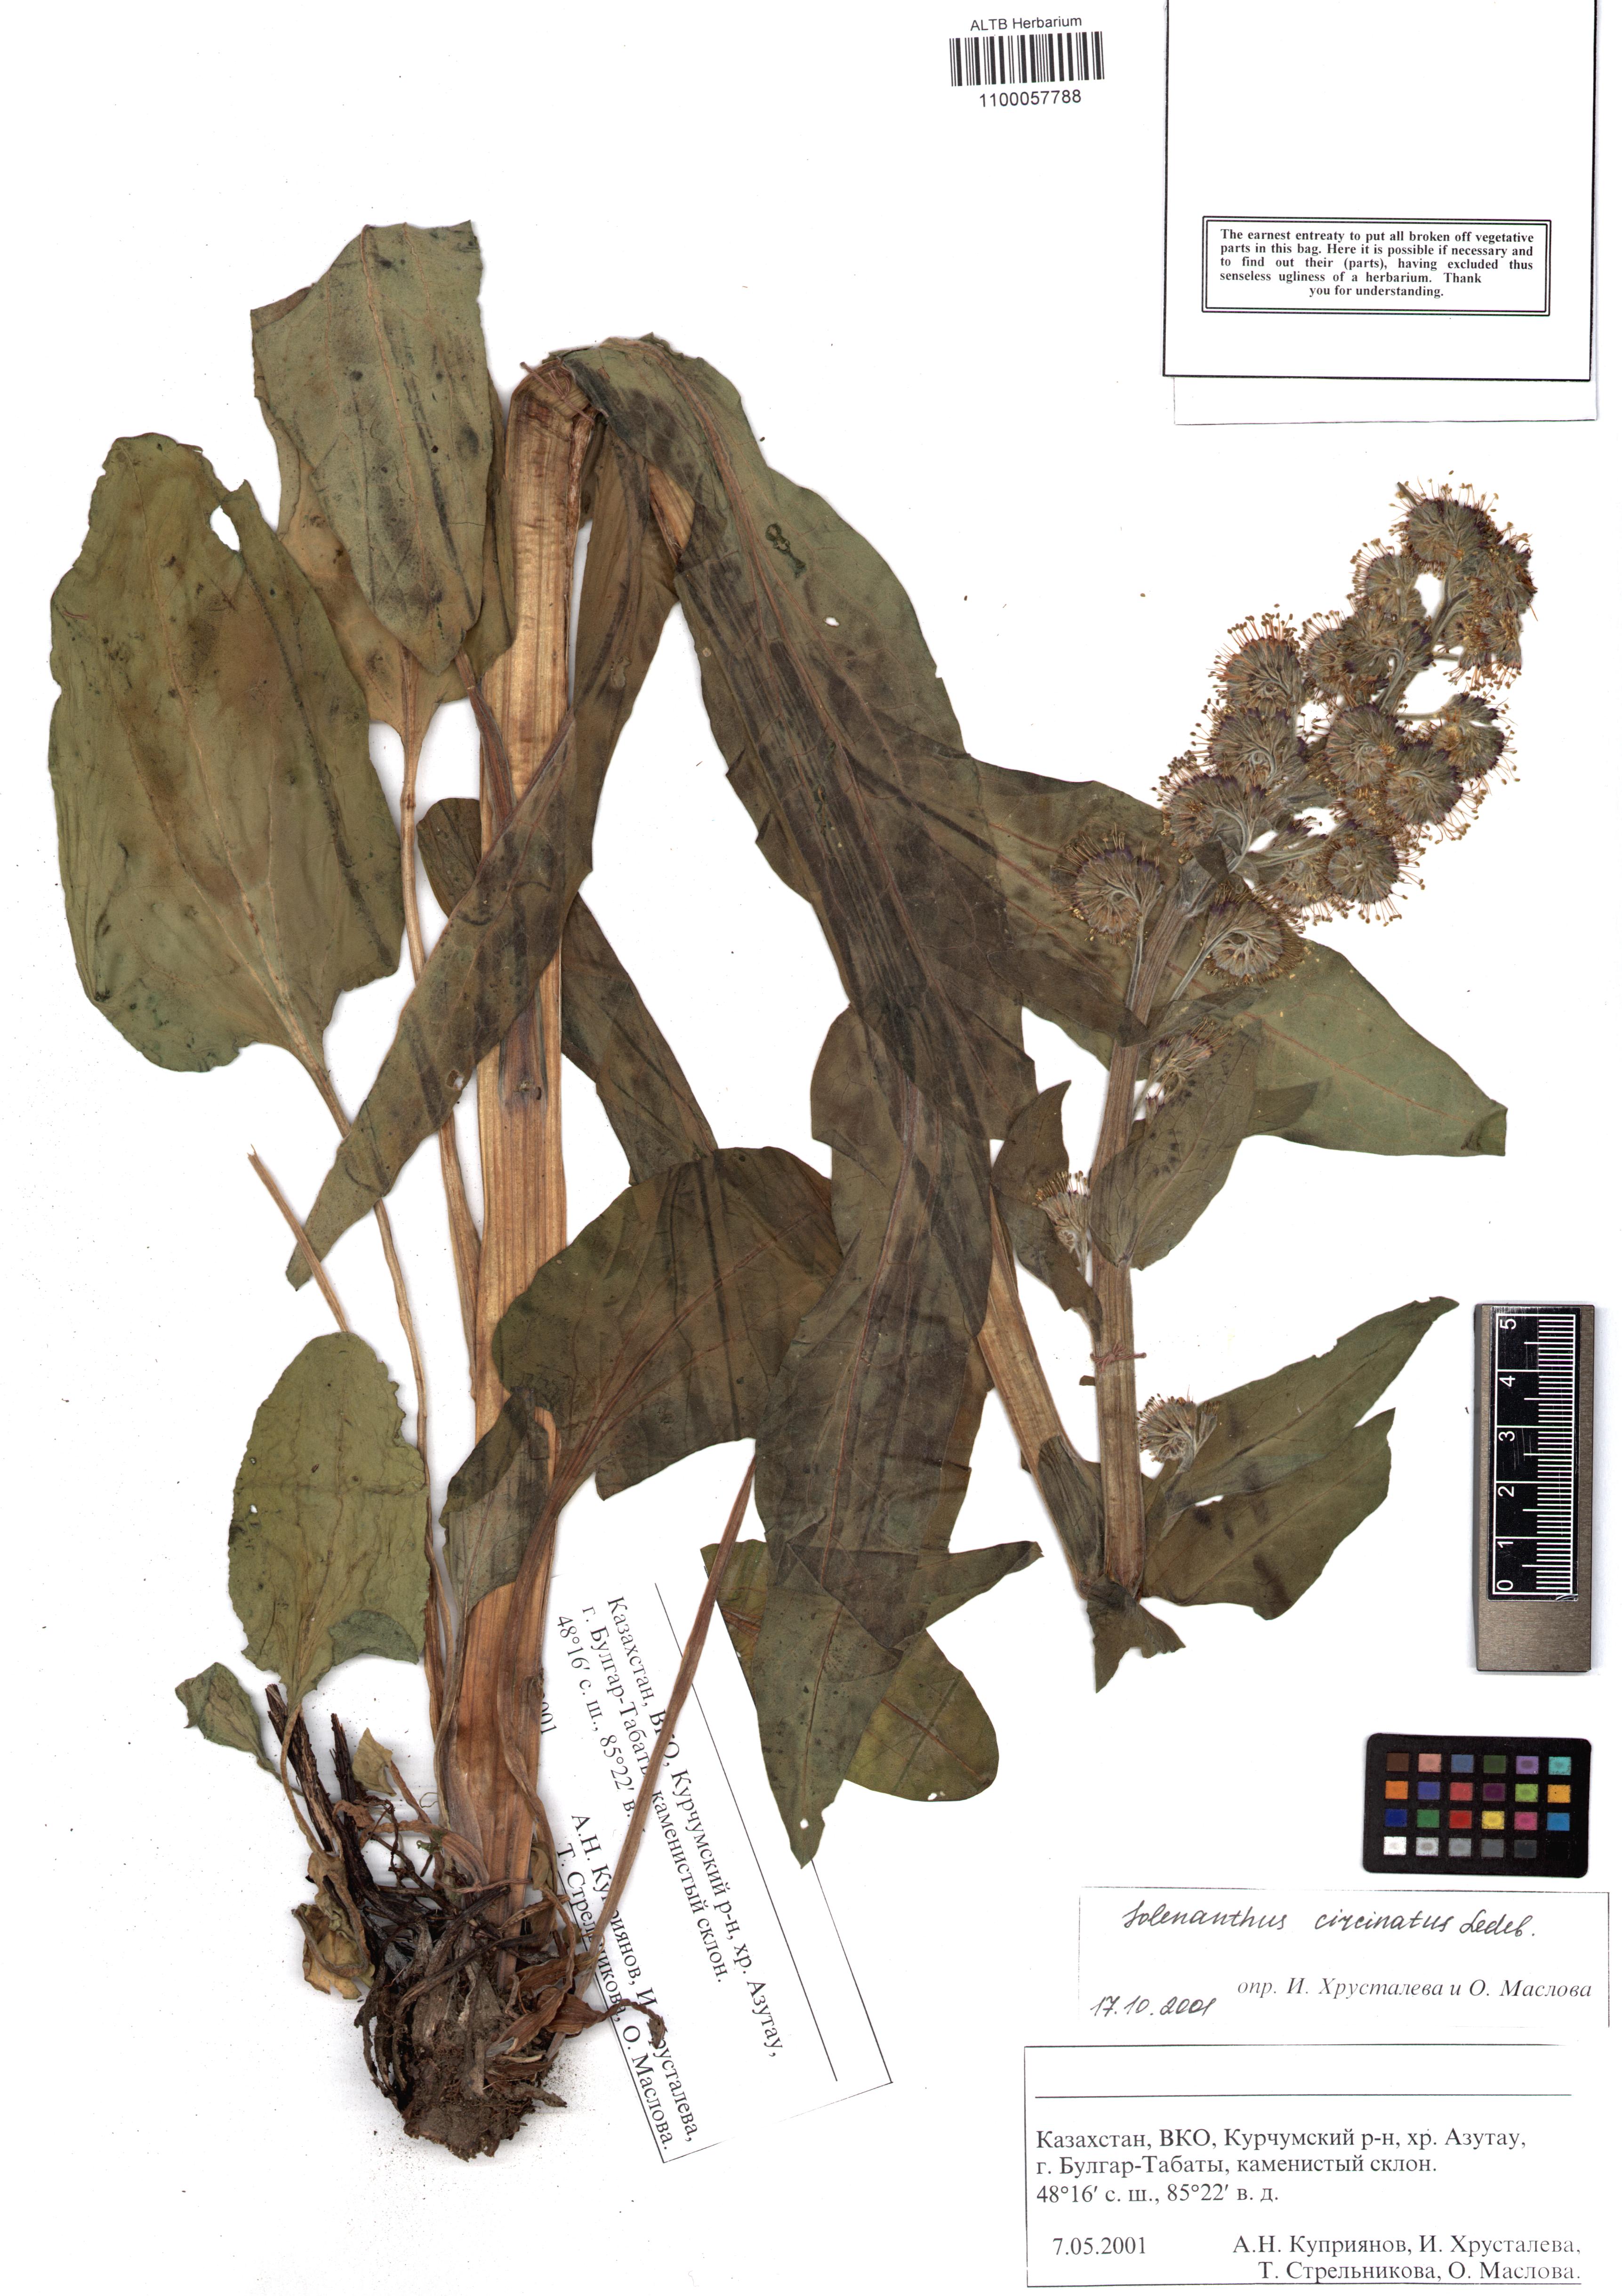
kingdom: Plantae
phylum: Tracheophyta
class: Magnoliopsida
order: Boraginales
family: Boraginaceae
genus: Solenanthus
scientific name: Solenanthus circinnatus
